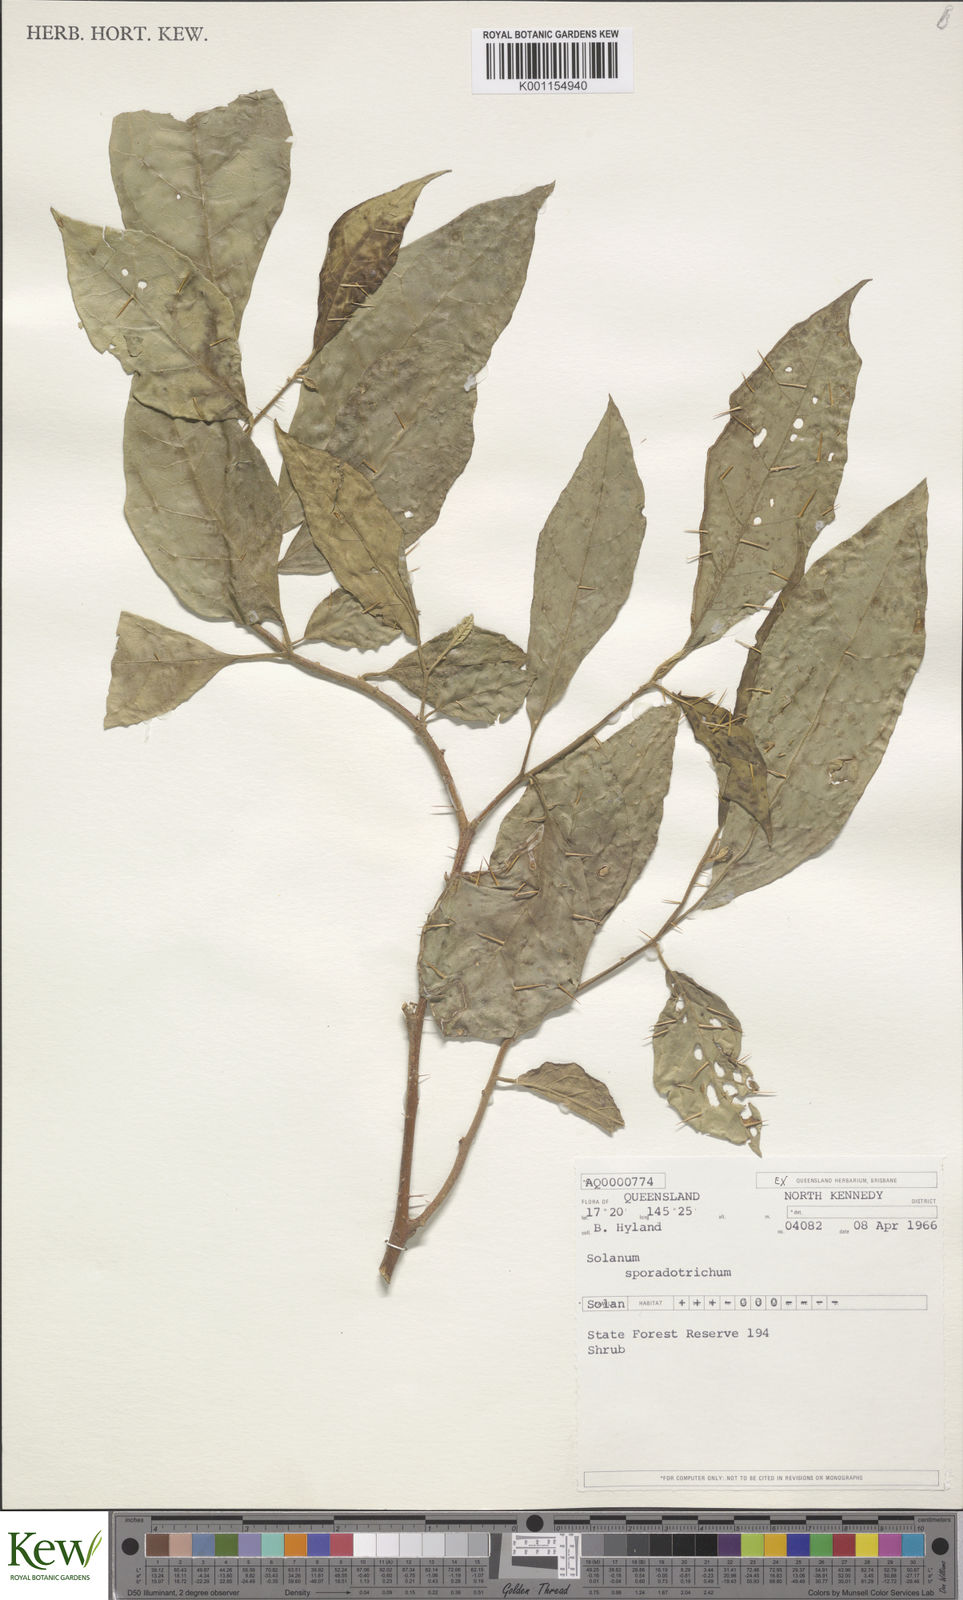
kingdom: Plantae
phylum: Tracheophyta
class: Magnoliopsida
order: Solanales
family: Solanaceae
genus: Solanum
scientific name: Solanum sporadotrichum
